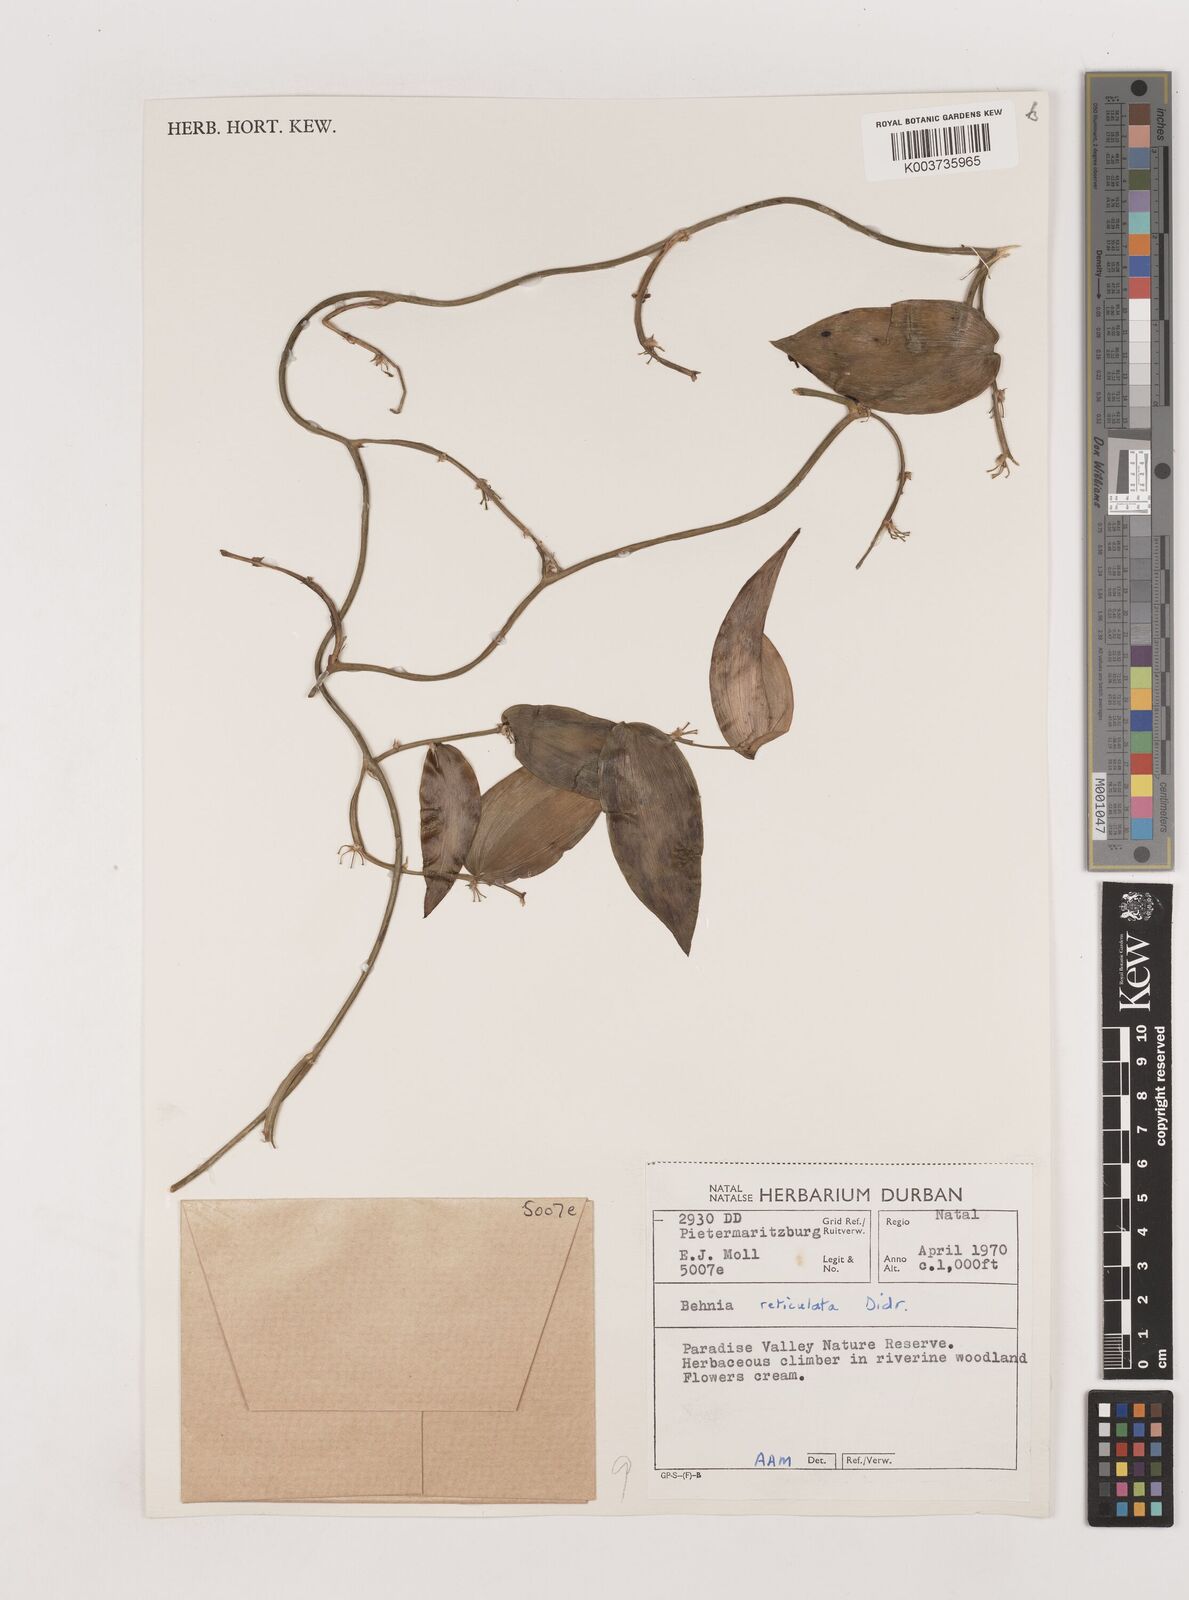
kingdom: Plantae
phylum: Tracheophyta
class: Liliopsida
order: Asparagales
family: Asparagaceae
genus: Behnia
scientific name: Behnia reticulata
